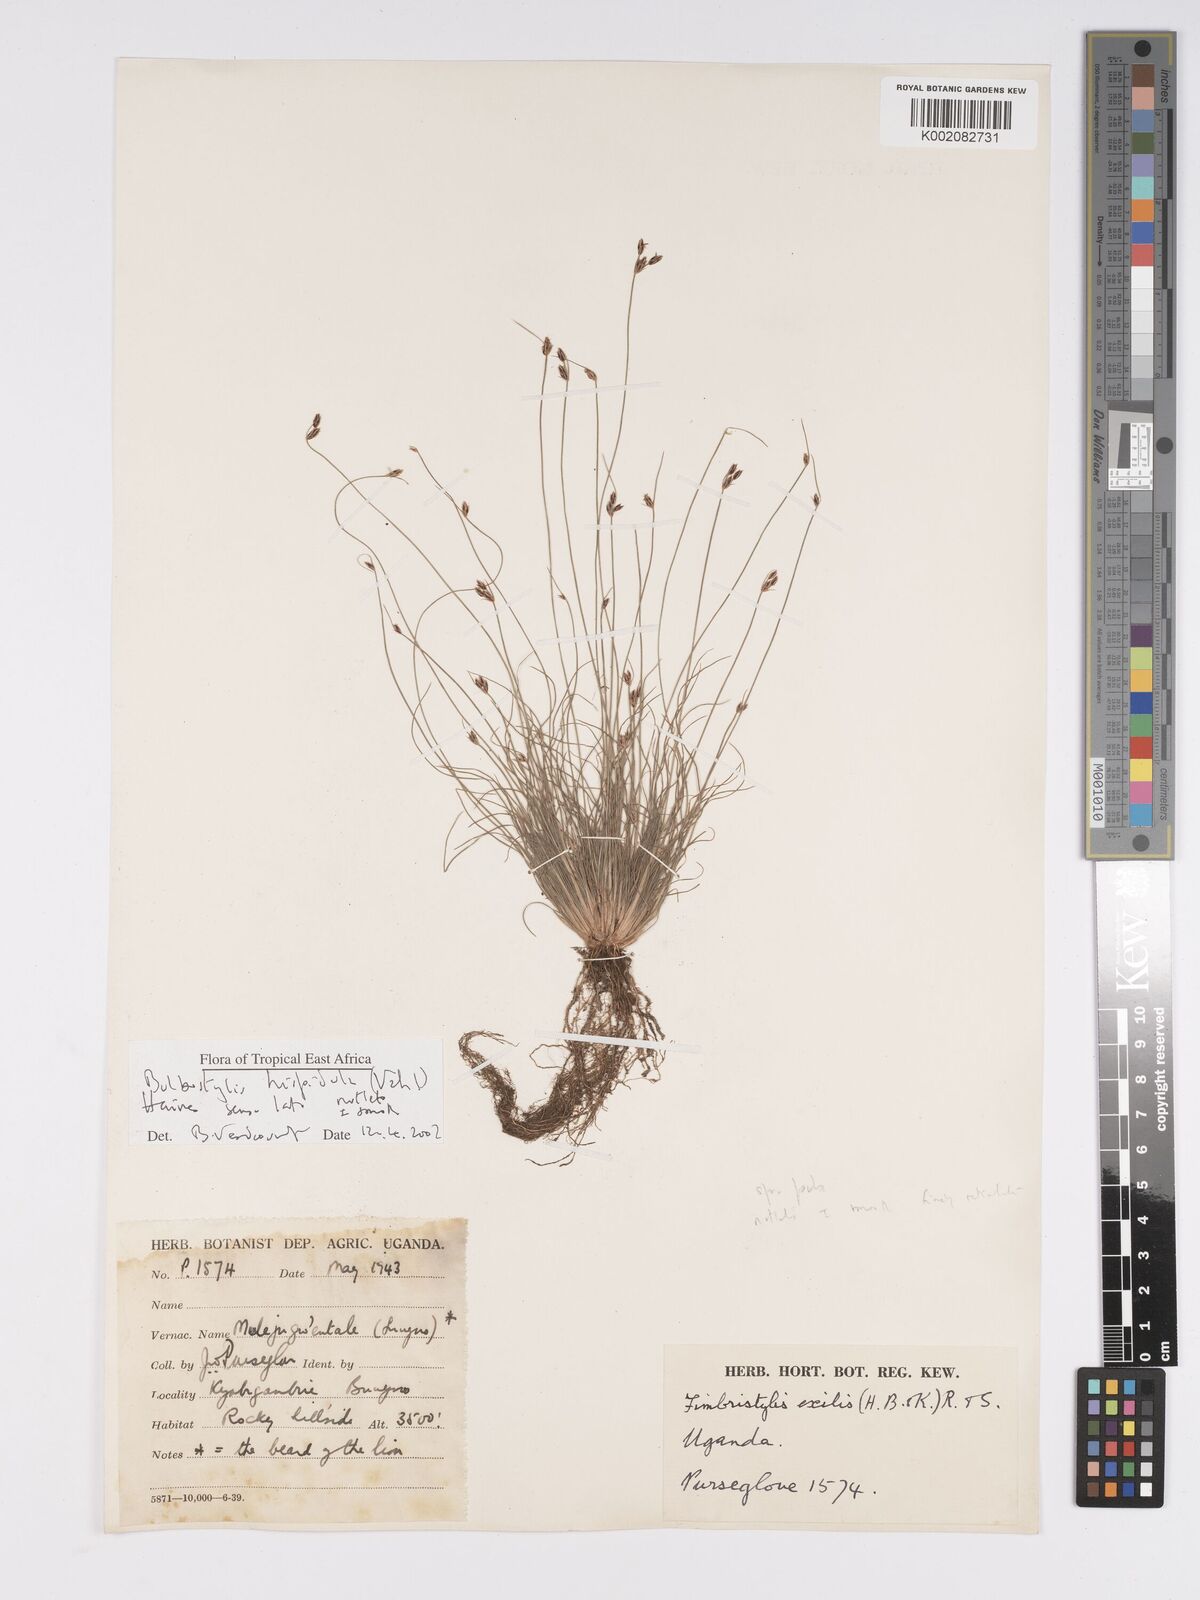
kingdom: Plantae
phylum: Tracheophyta
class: Liliopsida
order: Poales
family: Cyperaceae
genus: Bulbostylis
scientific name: Bulbostylis
